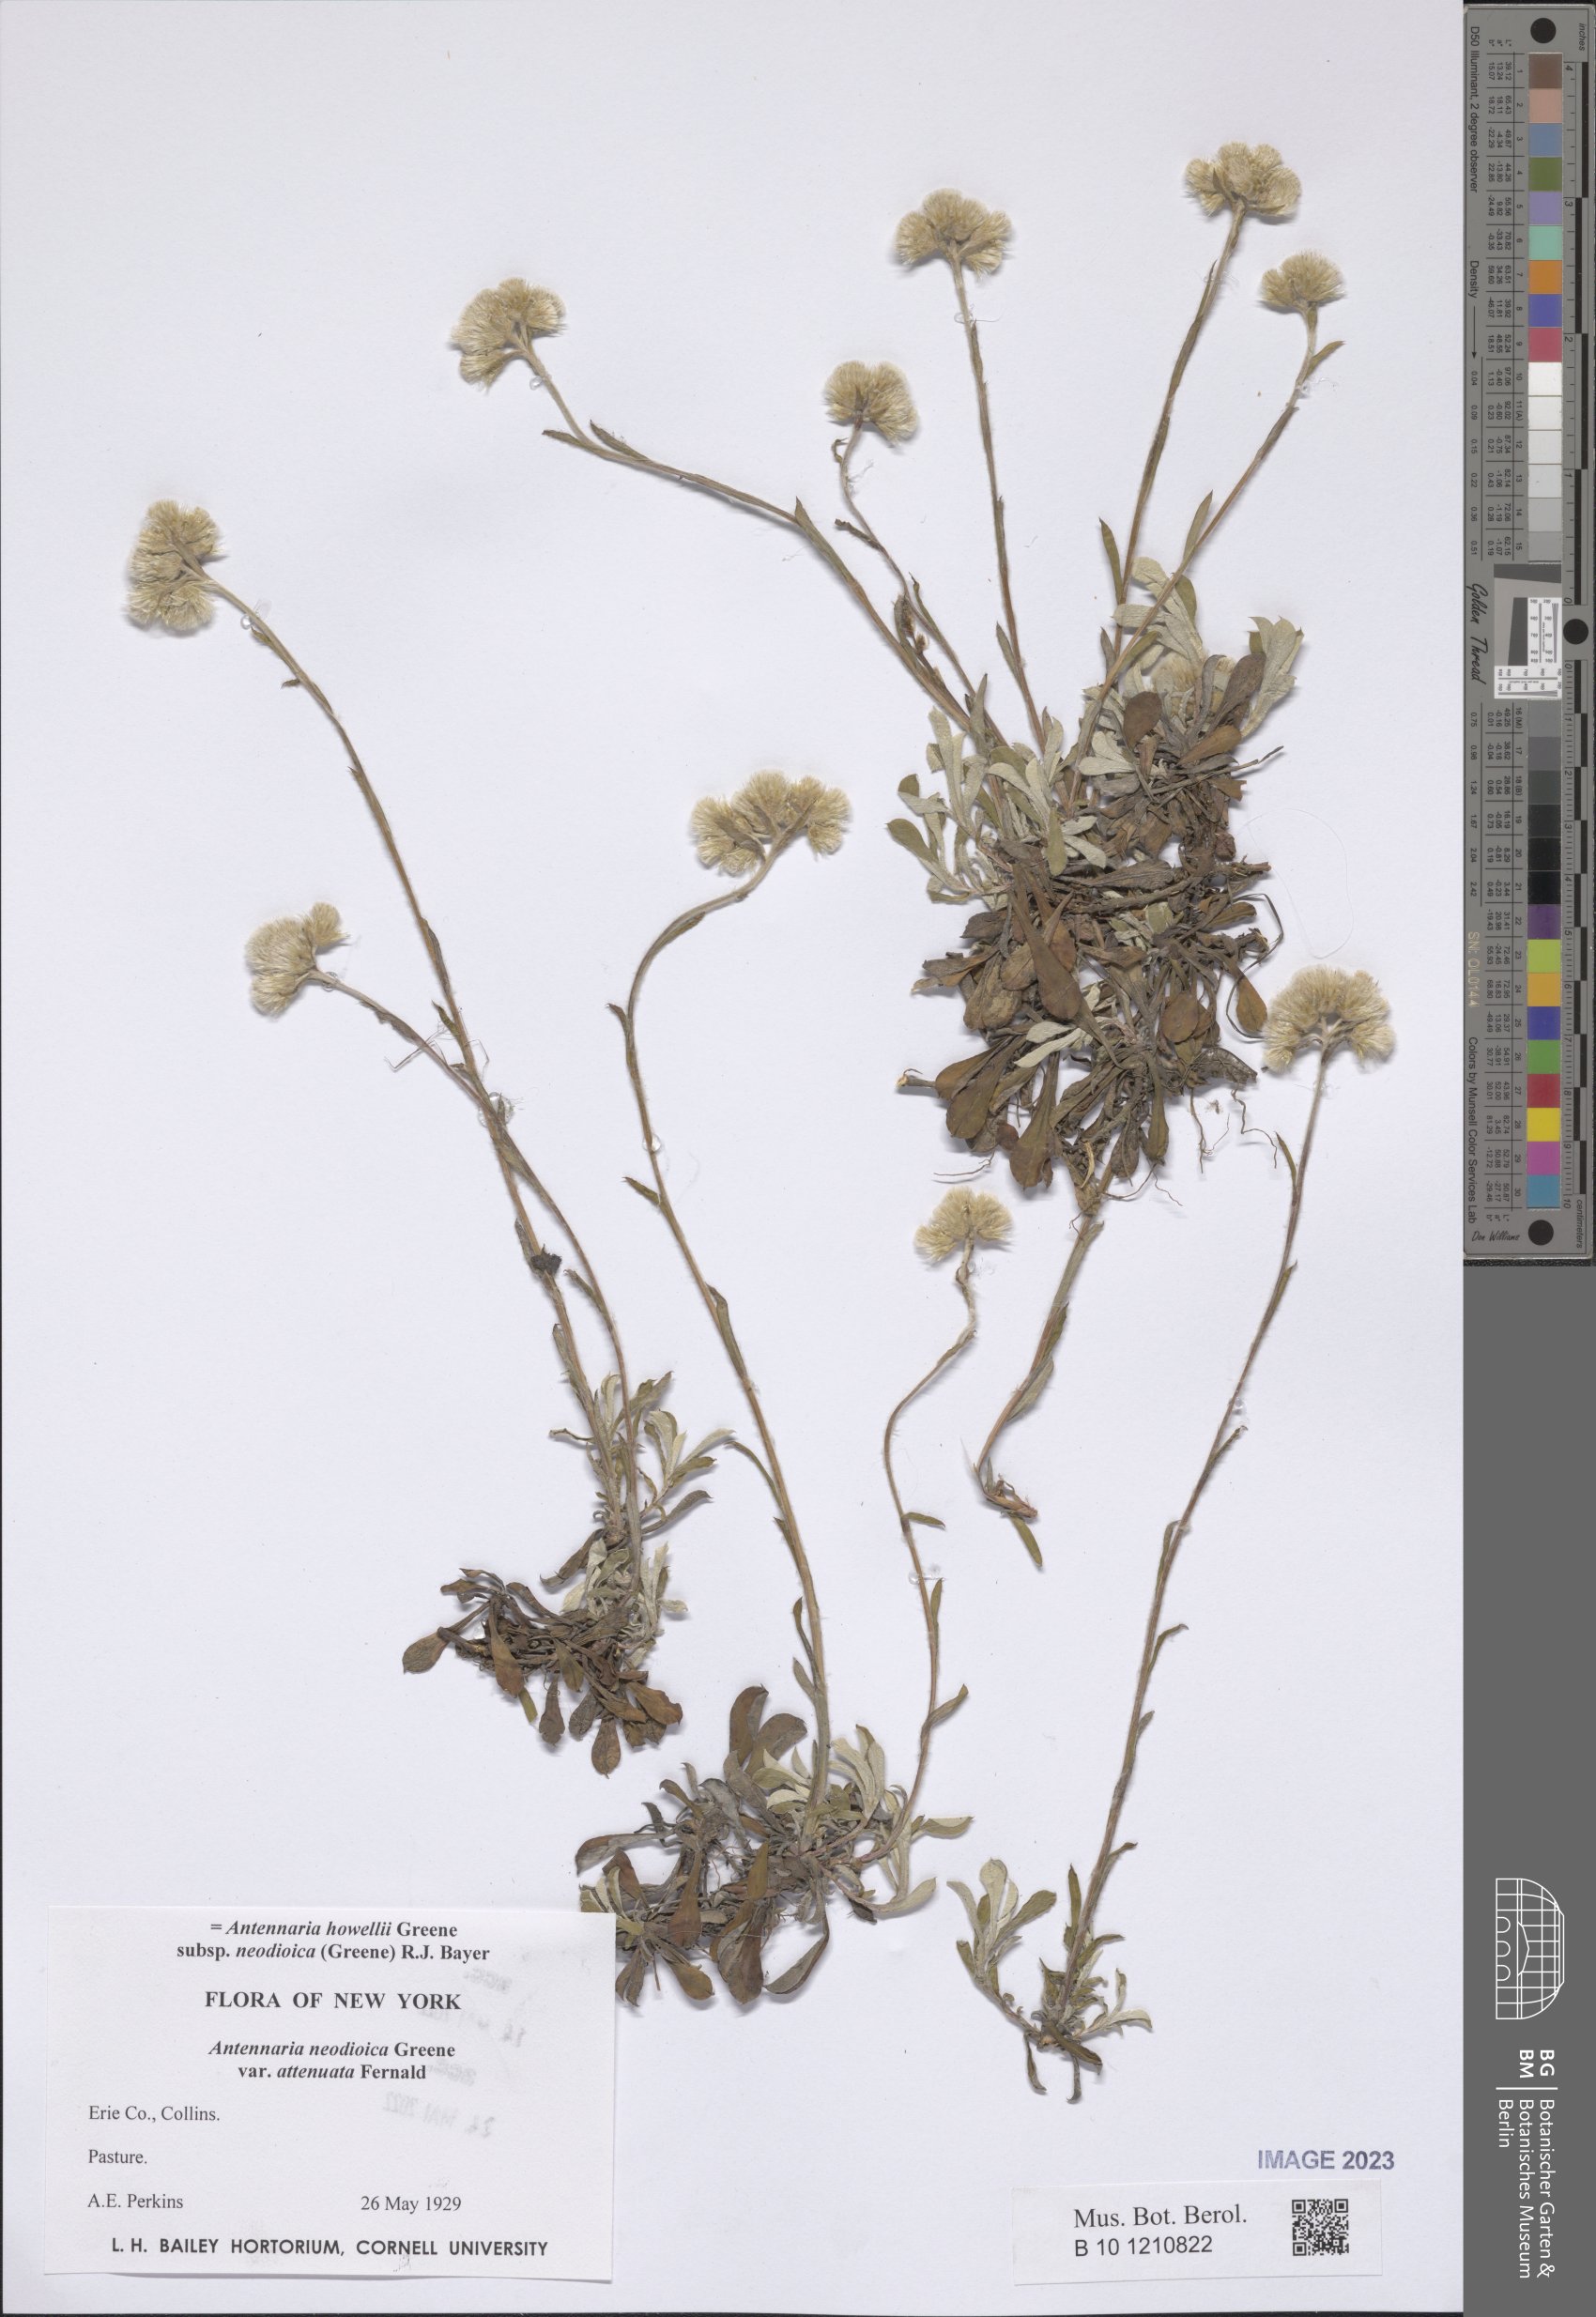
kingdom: Plantae
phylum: Tracheophyta
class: Magnoliopsida
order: Asterales
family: Asteraceae
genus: Antennaria
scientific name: Antennaria howellii
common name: Howell's pussytoes
